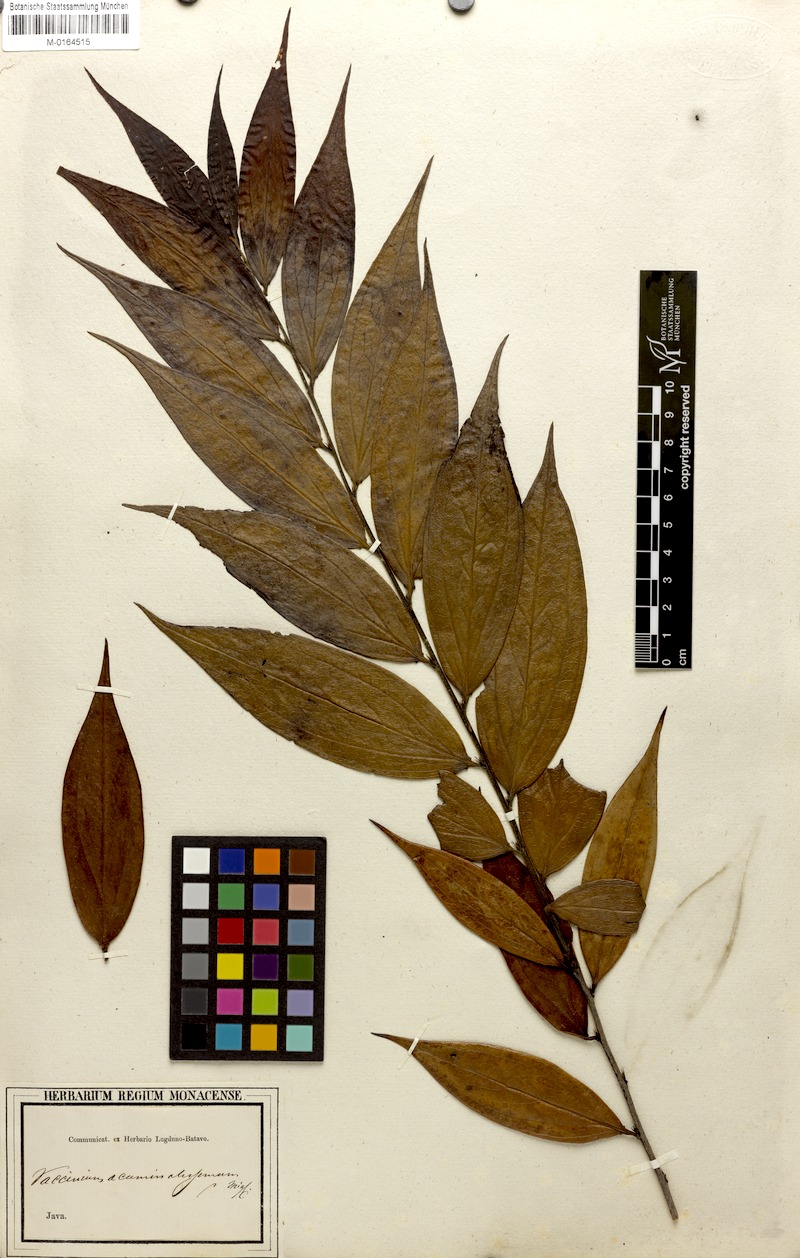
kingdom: Plantae
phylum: Tracheophyta
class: Magnoliopsida
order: Ericales
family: Ericaceae
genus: Rigiolepis
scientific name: Rigiolepis lanceolata
